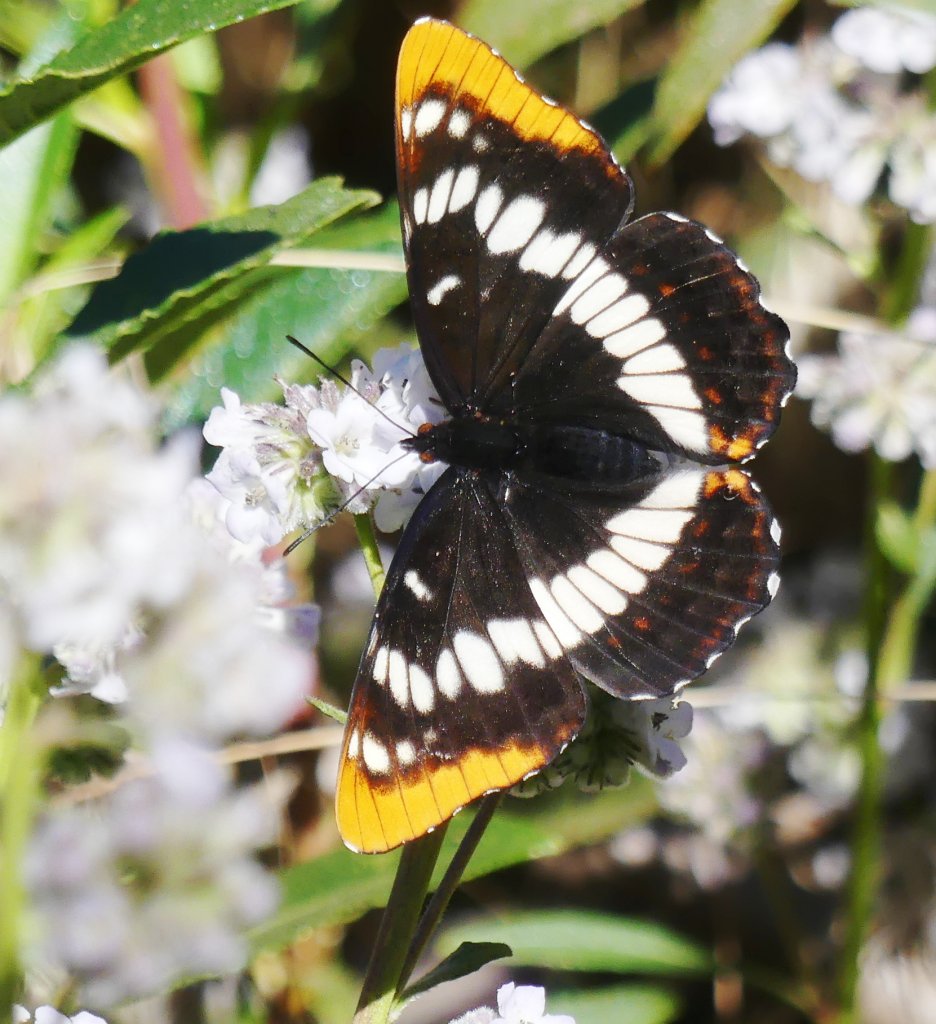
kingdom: Animalia
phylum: Arthropoda
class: Insecta
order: Lepidoptera
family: Nymphalidae
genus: Limenitis
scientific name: Limenitis lorquini
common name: Lorquin's Admiral
